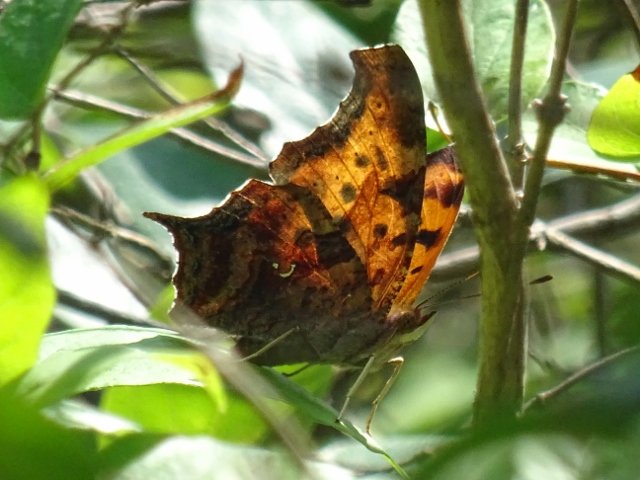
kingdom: Animalia
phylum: Arthropoda
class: Insecta
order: Lepidoptera
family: Nymphalidae
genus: Polygonia
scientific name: Polygonia interrogationis
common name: Question Mark
